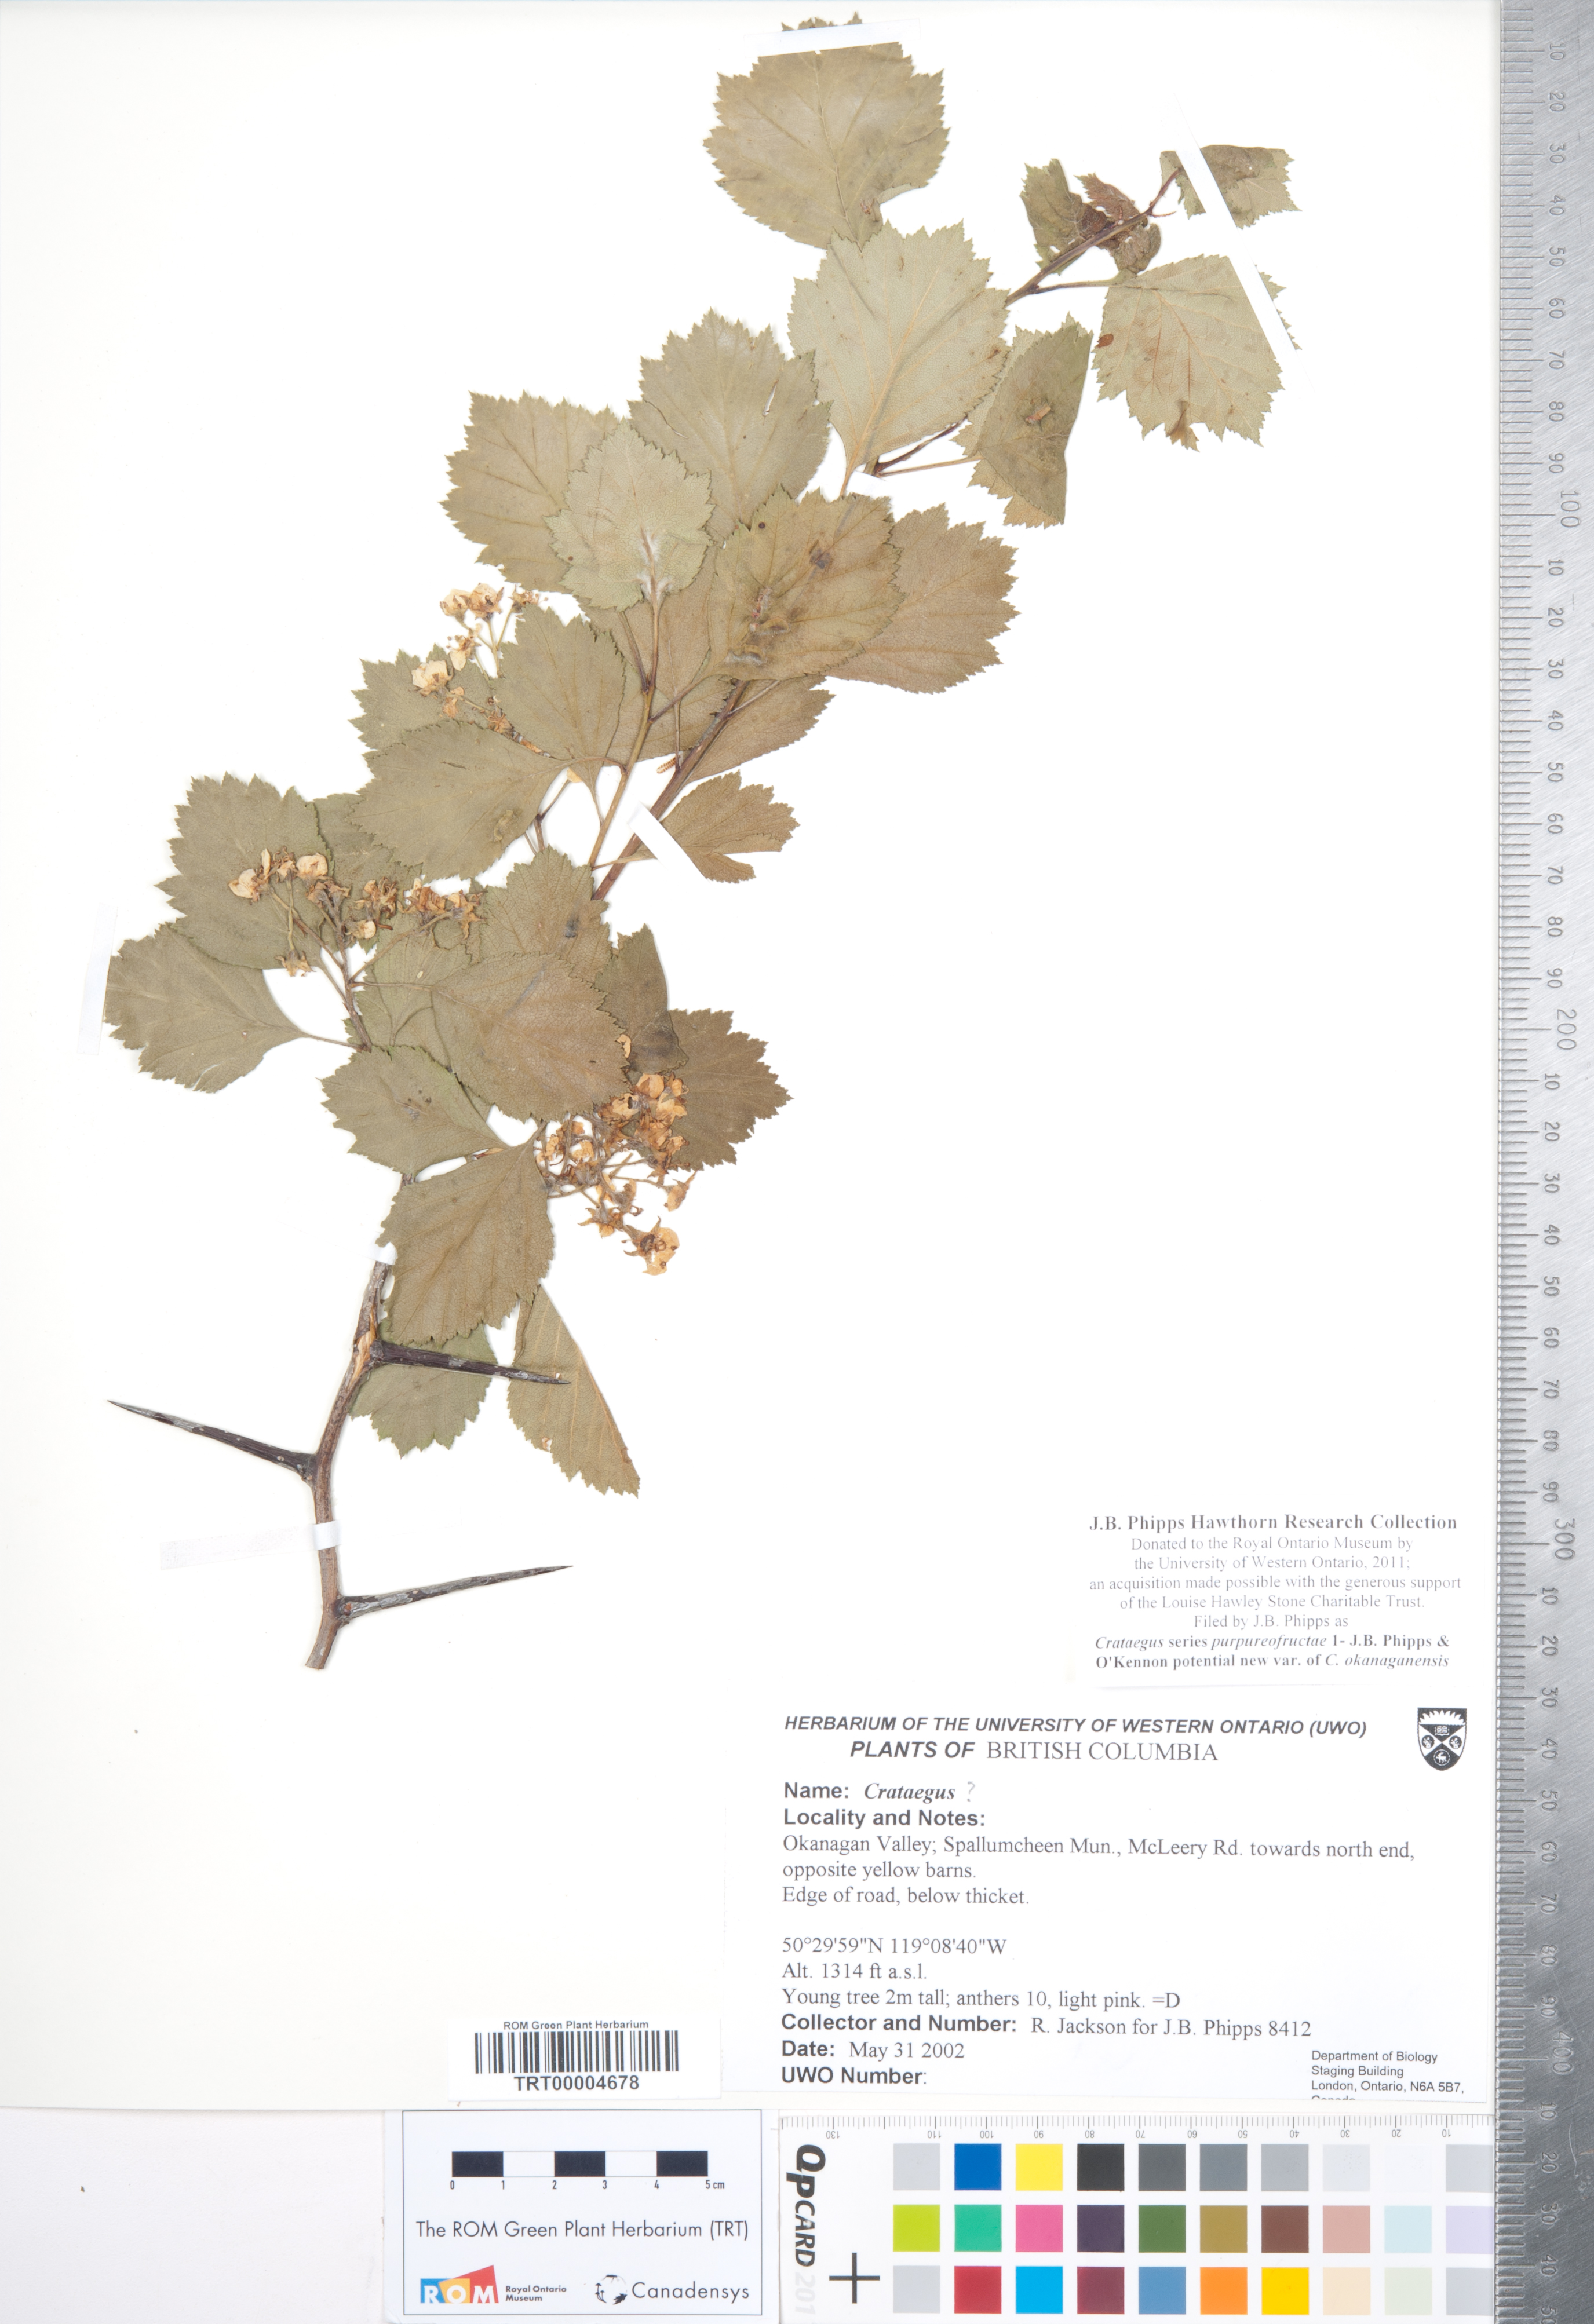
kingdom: Plantae
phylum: Tracheophyta
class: Magnoliopsida
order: Rosales
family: Rosaceae
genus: Crataegus
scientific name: Crataegus okanaganensis
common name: Okanagan valley hawthorn
